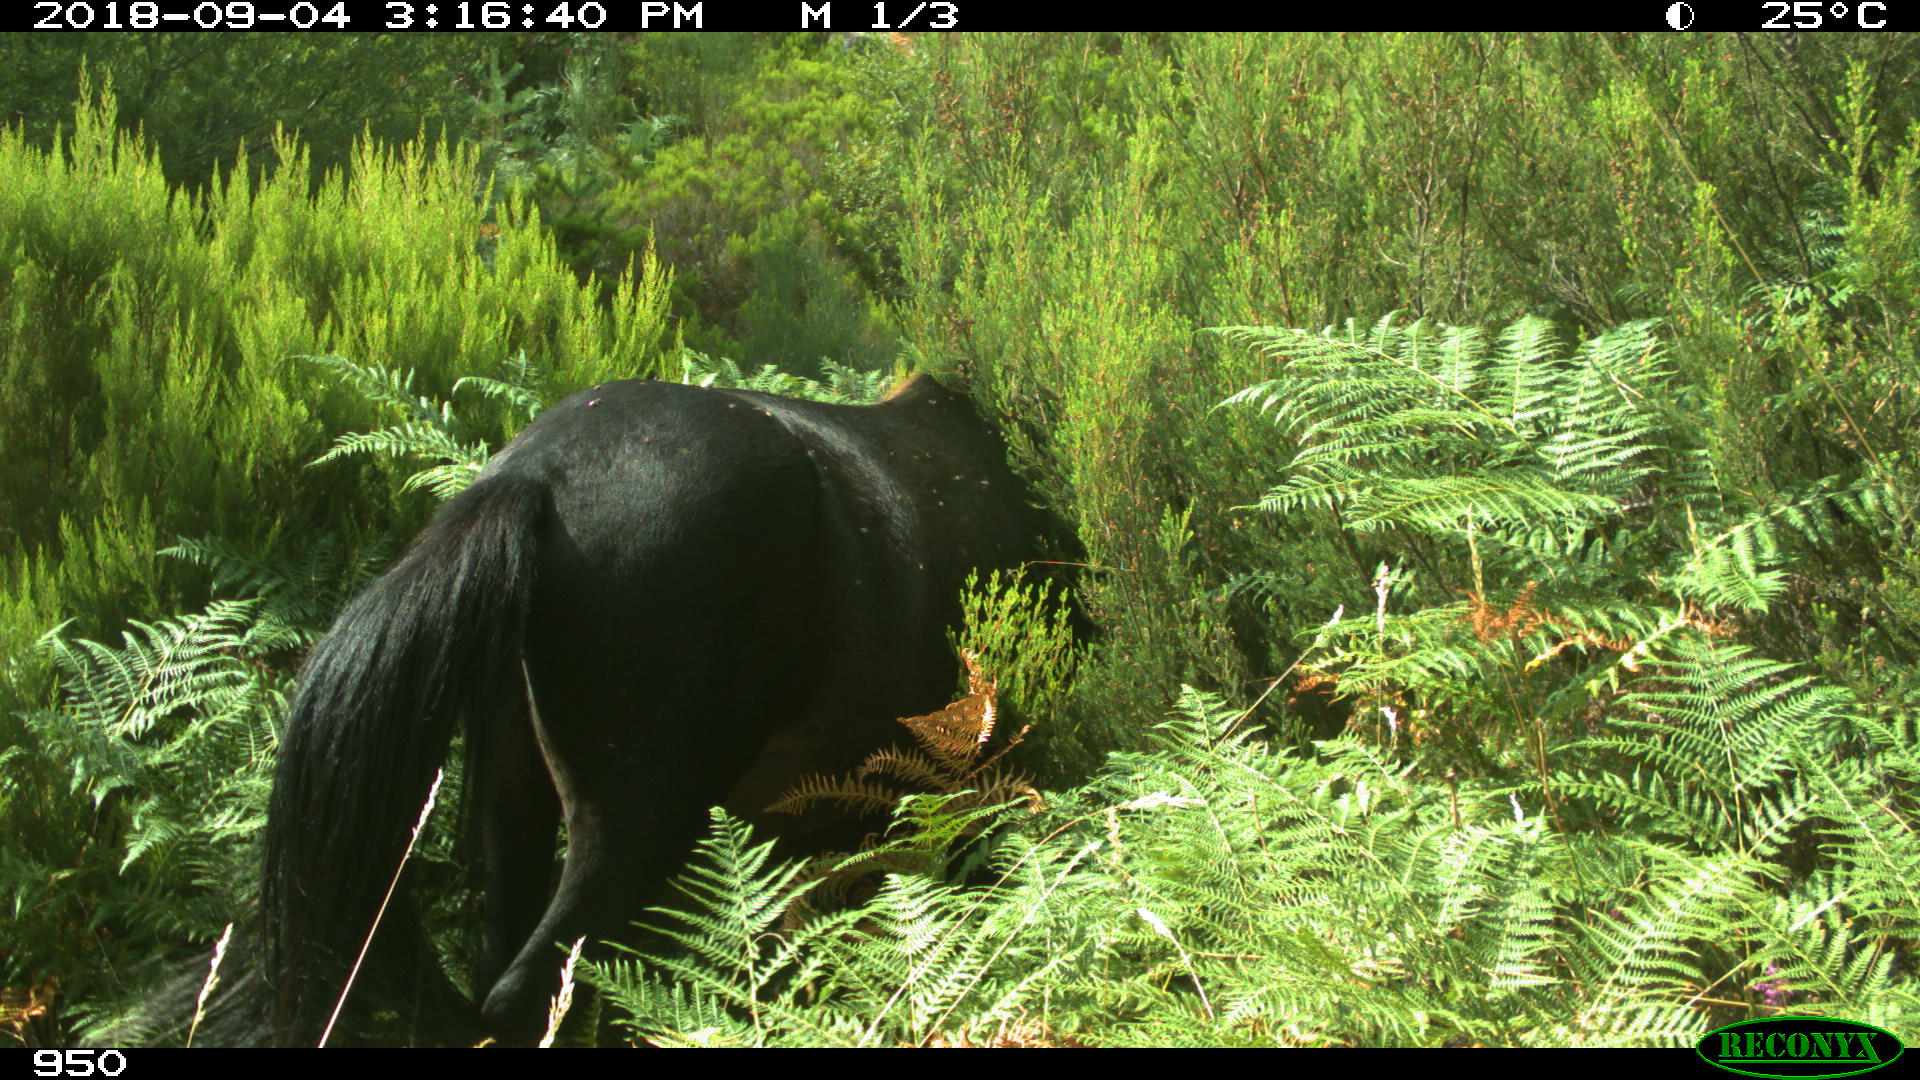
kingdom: Animalia
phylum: Chordata
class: Mammalia
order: Perissodactyla
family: Equidae
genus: Equus
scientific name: Equus caballus
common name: Horse
